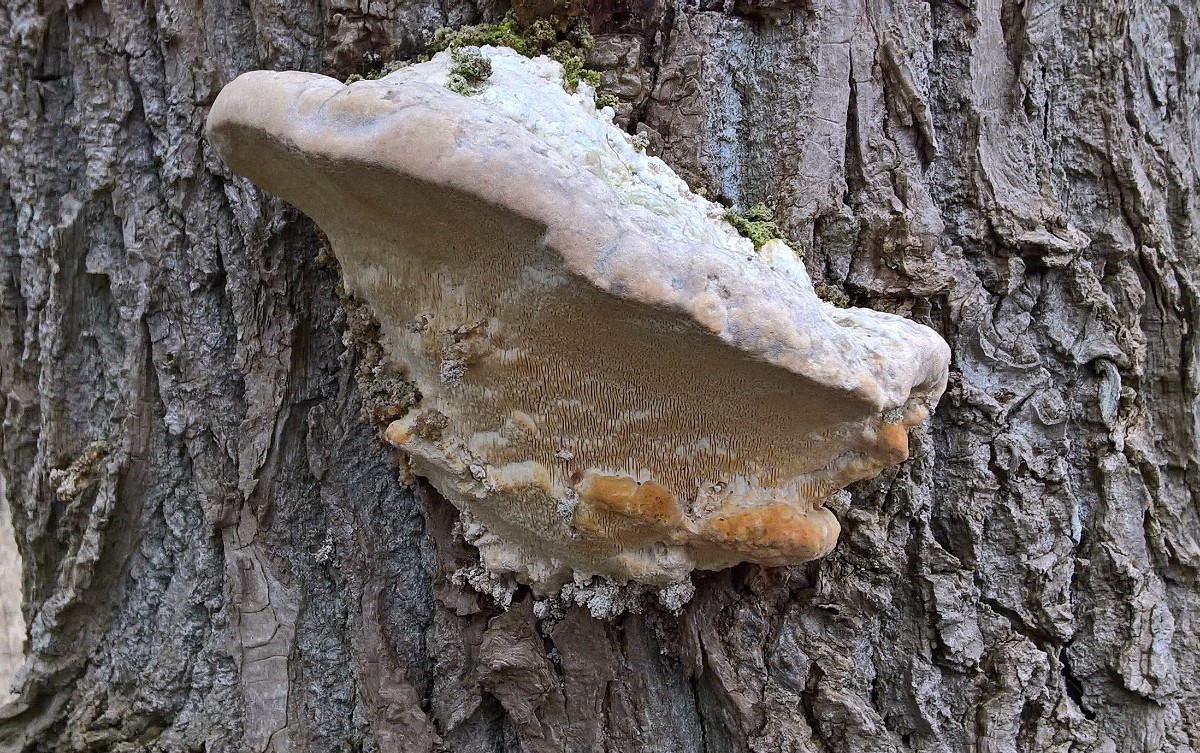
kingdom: Fungi
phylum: Basidiomycota
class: Agaricomycetes
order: Polyporales
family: Polyporaceae
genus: Trametes
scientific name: Trametes gibbosa
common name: puklet læderporesvamp
